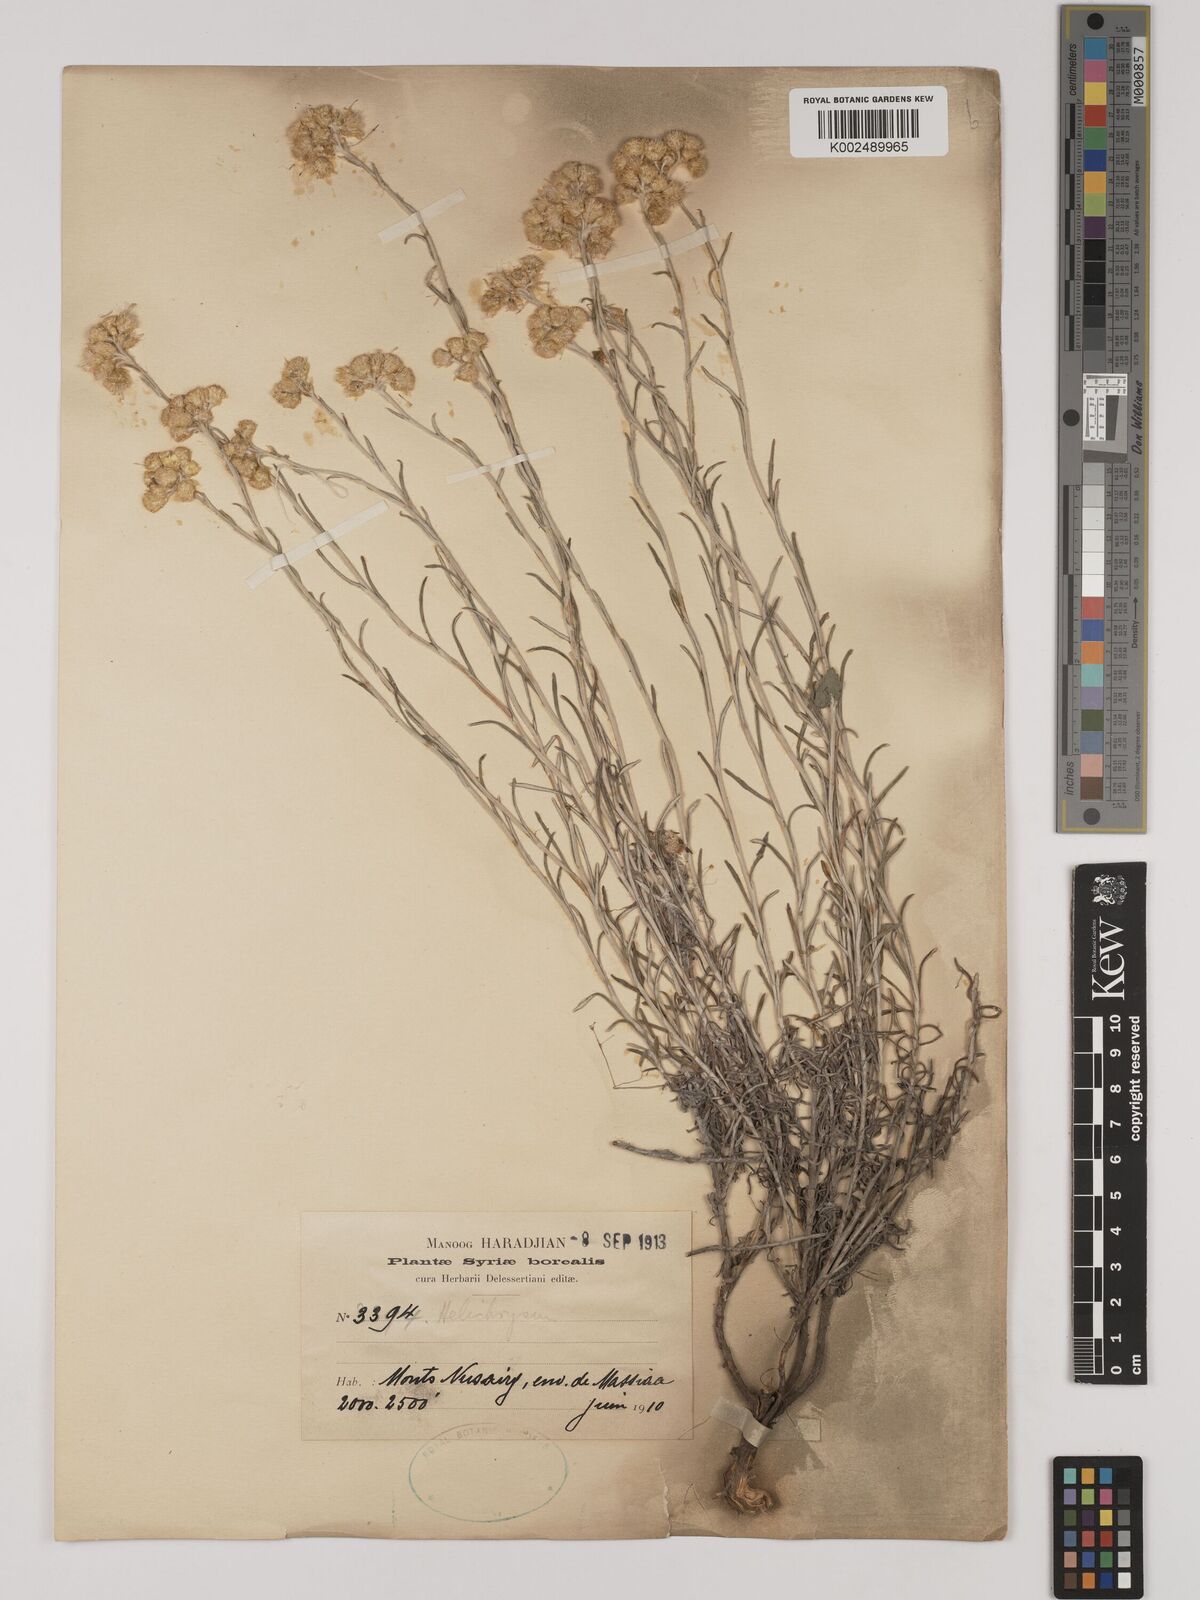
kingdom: Plantae
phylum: Tracheophyta
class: Magnoliopsida
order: Asterales
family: Asteraceae
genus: Helichrysum
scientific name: Helichrysum stoechas
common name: Goldilocks
